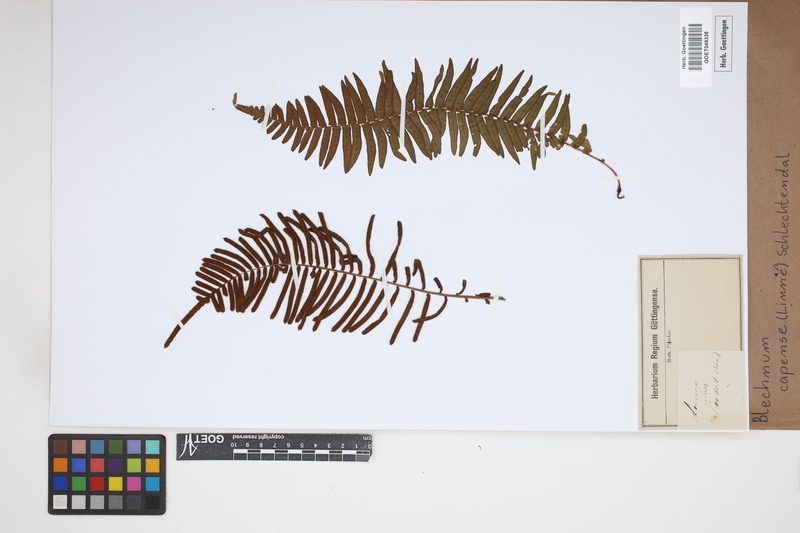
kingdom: Plantae
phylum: Tracheophyta
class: Polypodiopsida
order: Polypodiales
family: Blechnaceae
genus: Parablechnum
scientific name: Parablechnum capense
